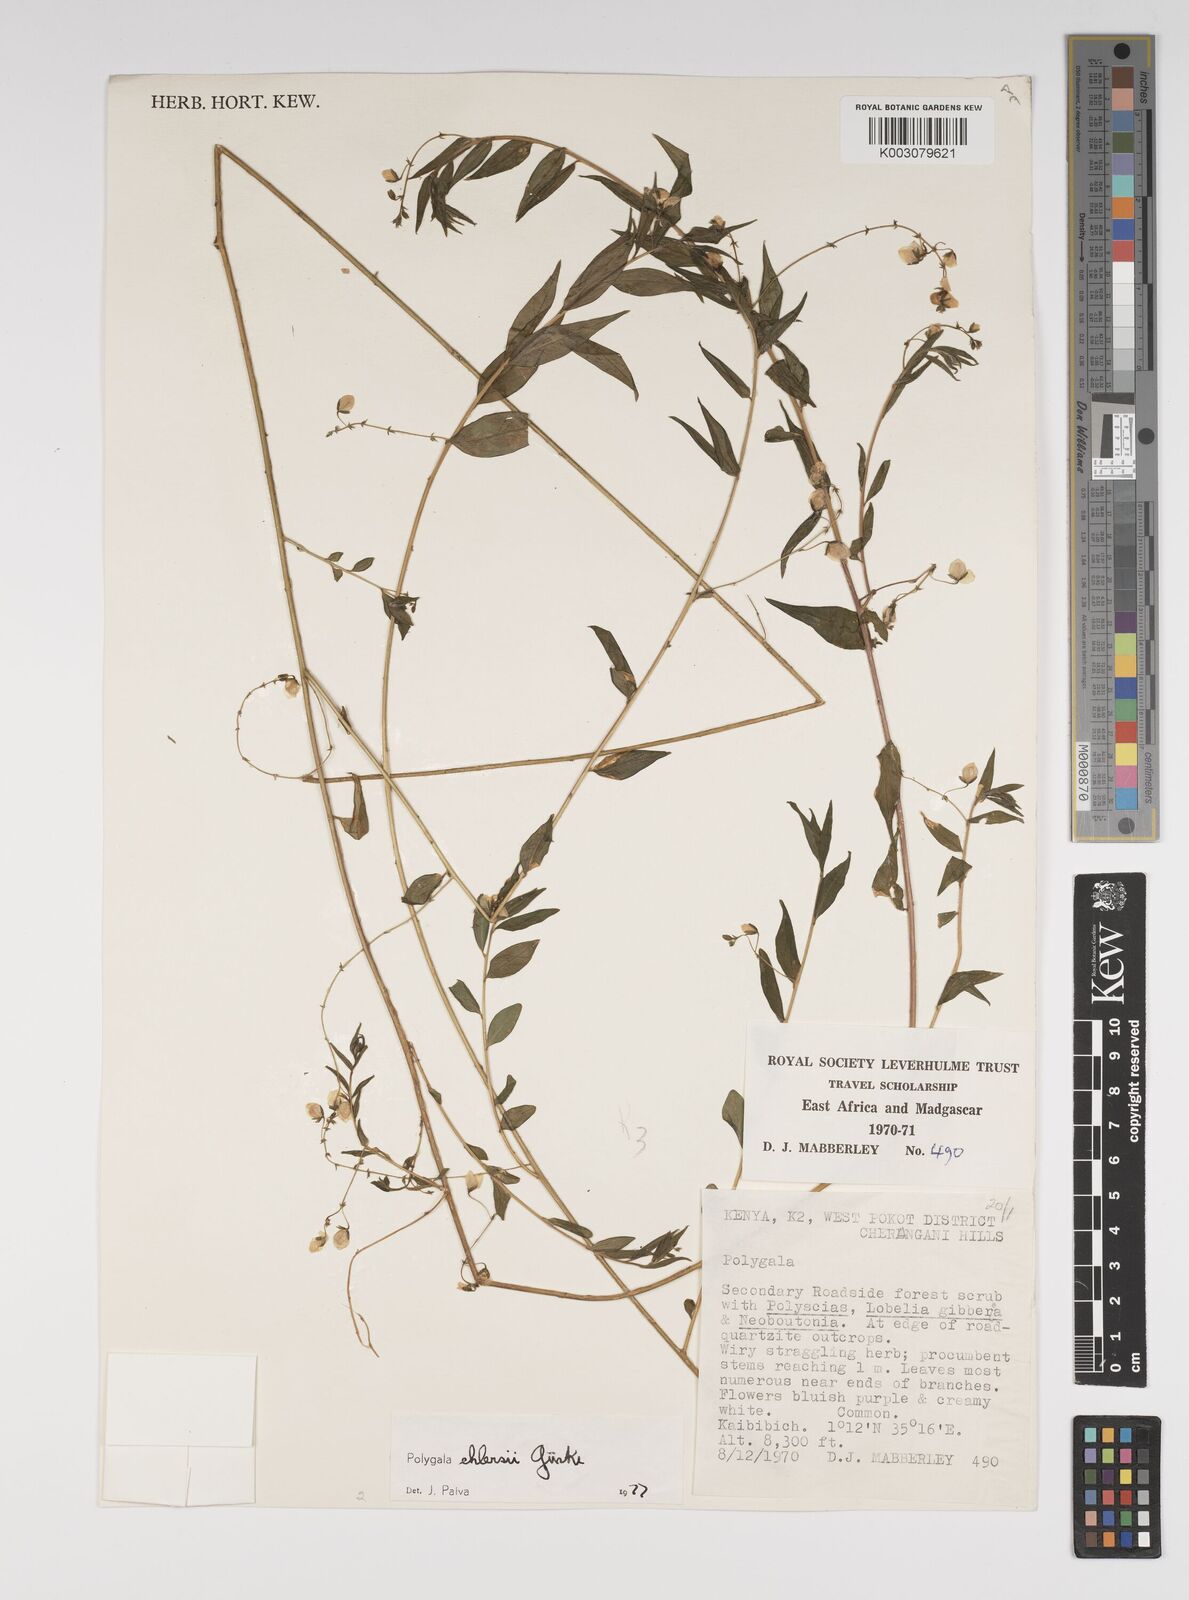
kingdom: Plantae
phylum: Tracheophyta
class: Magnoliopsida
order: Fabales
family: Polygalaceae
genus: Polygala
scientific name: Polygala ehlersii
